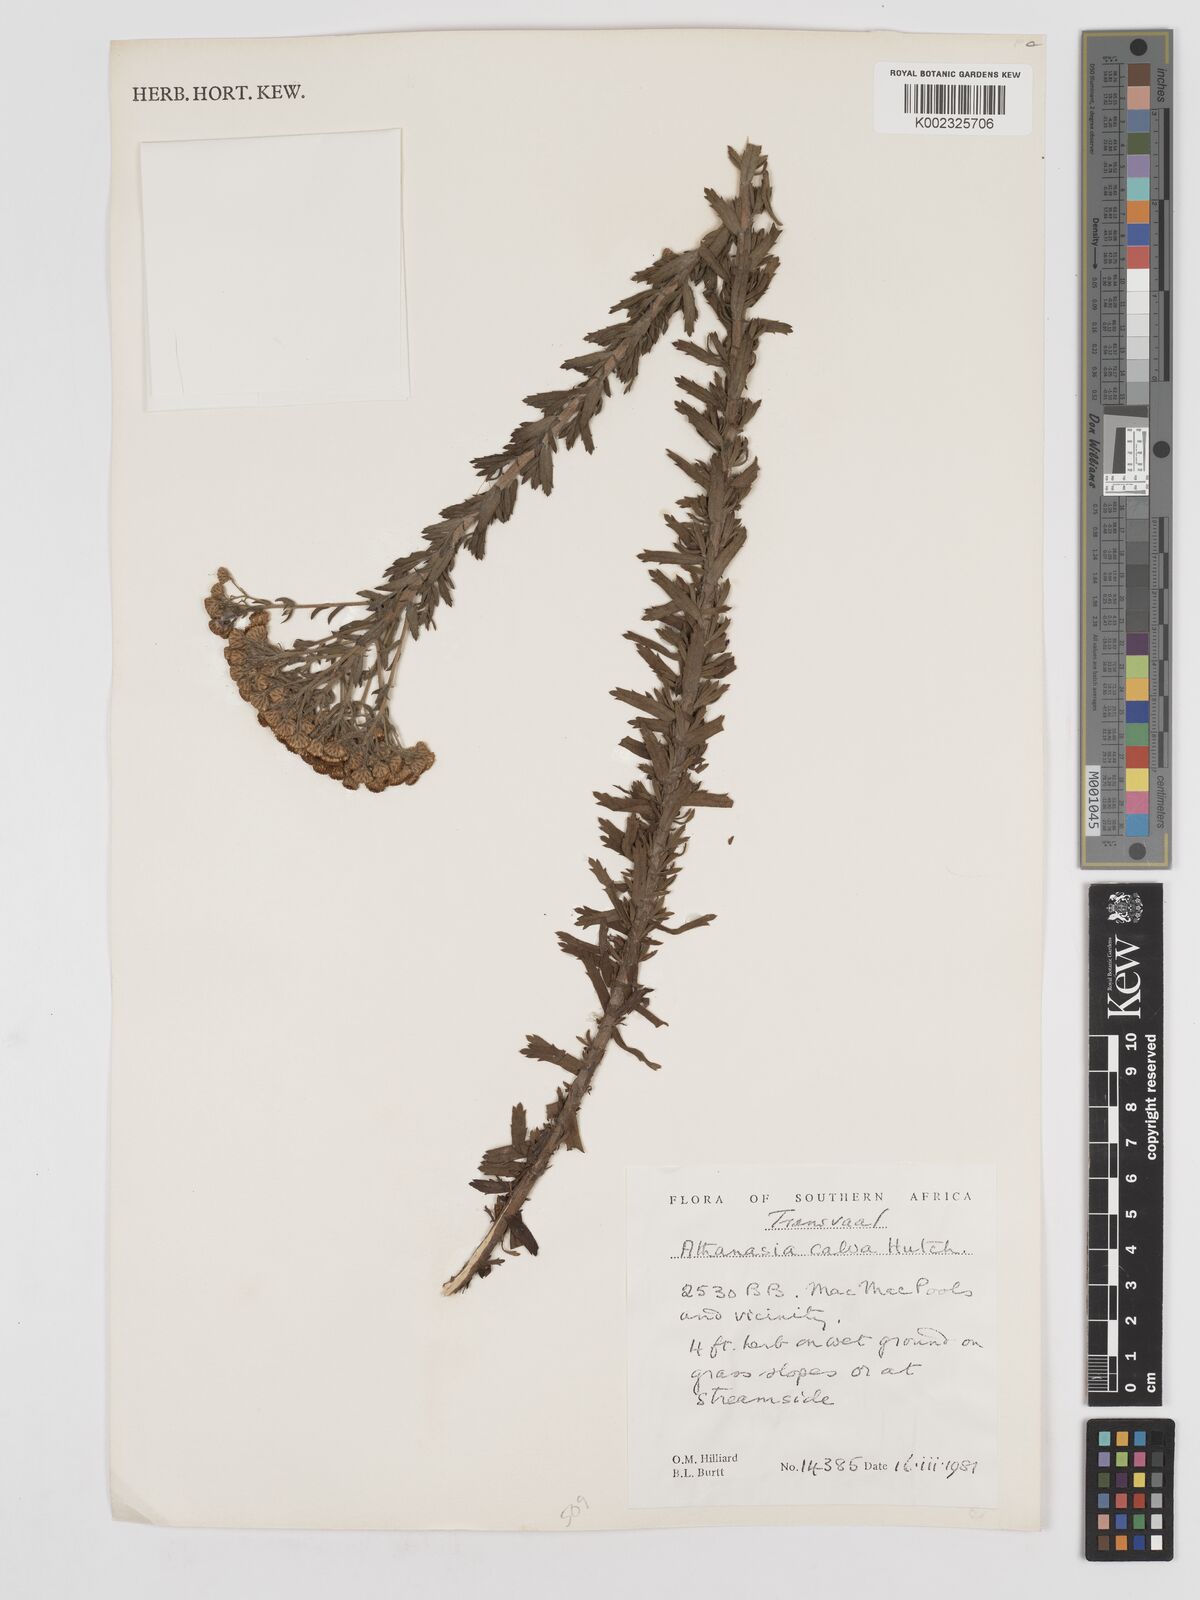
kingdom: Plantae
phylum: Tracheophyta
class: Magnoliopsida
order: Asterales
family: Asteraceae
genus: Inulanthera
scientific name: Inulanthera dregeana
